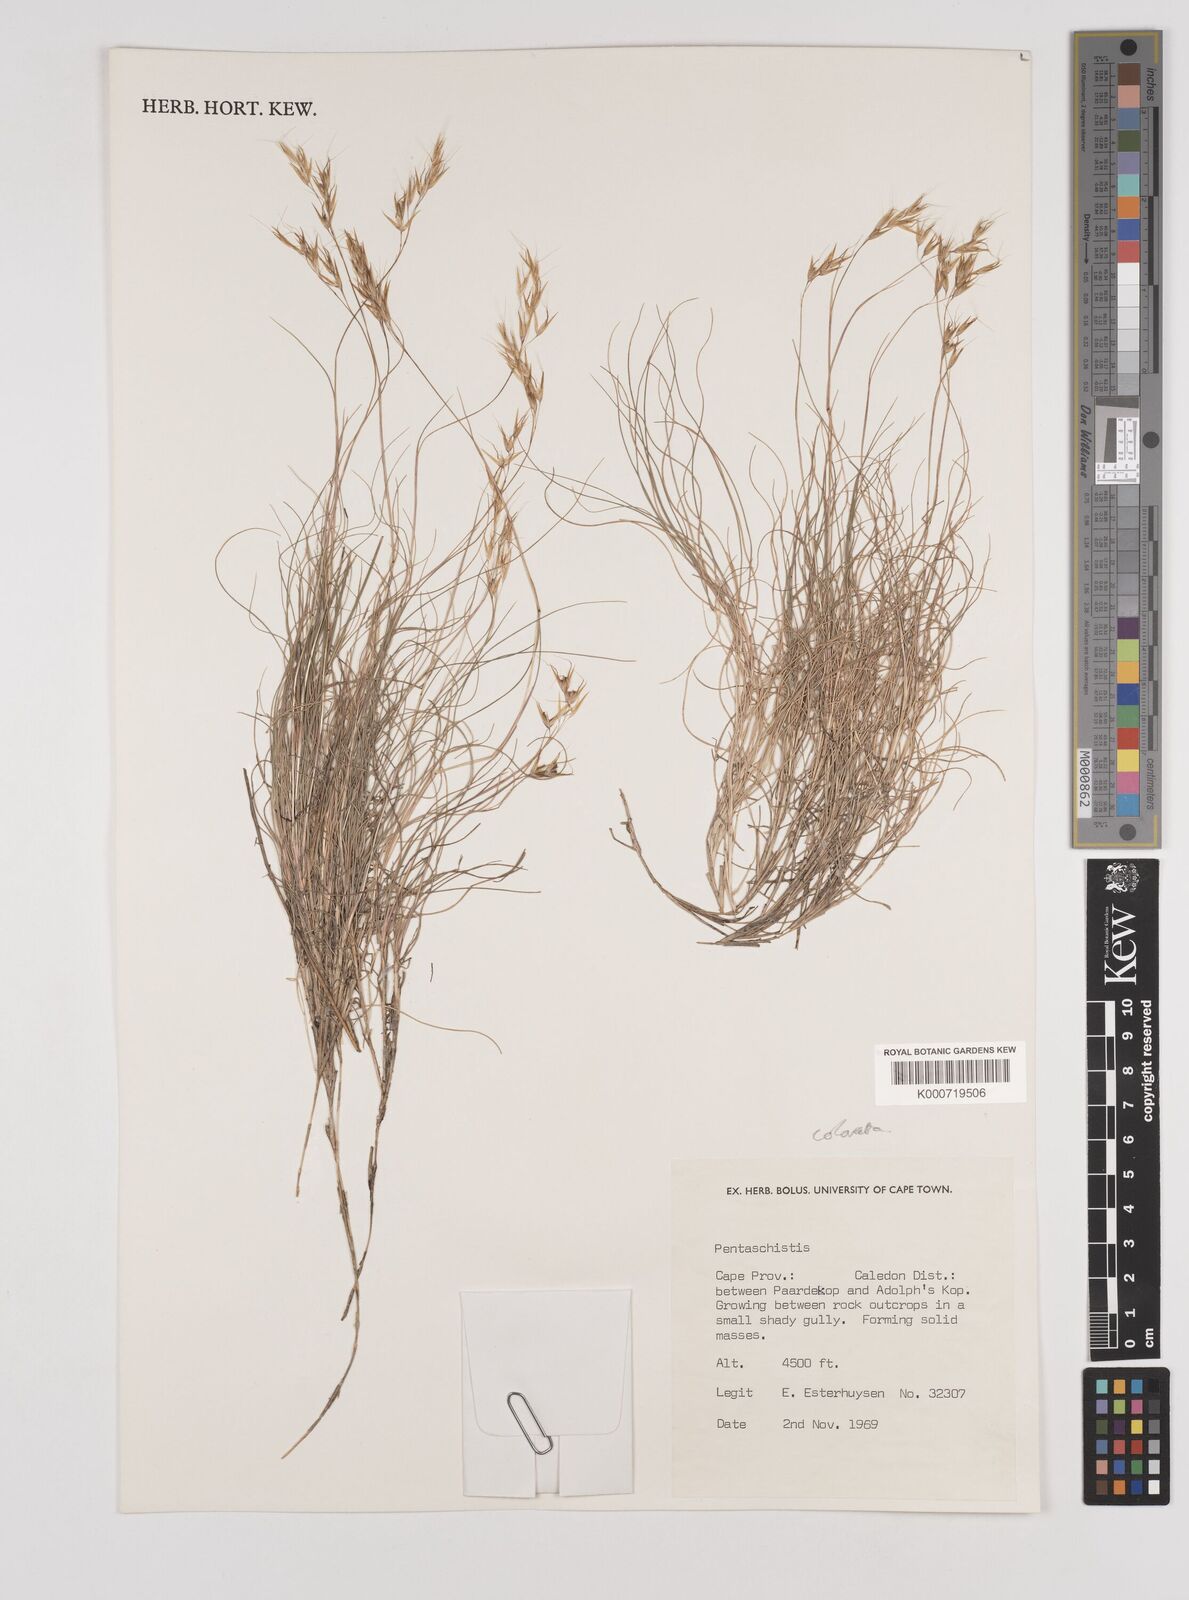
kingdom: Plantae
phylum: Tracheophyta
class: Liliopsida
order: Poales
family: Poaceae
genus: Pentameris
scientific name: Pentameris colorata
